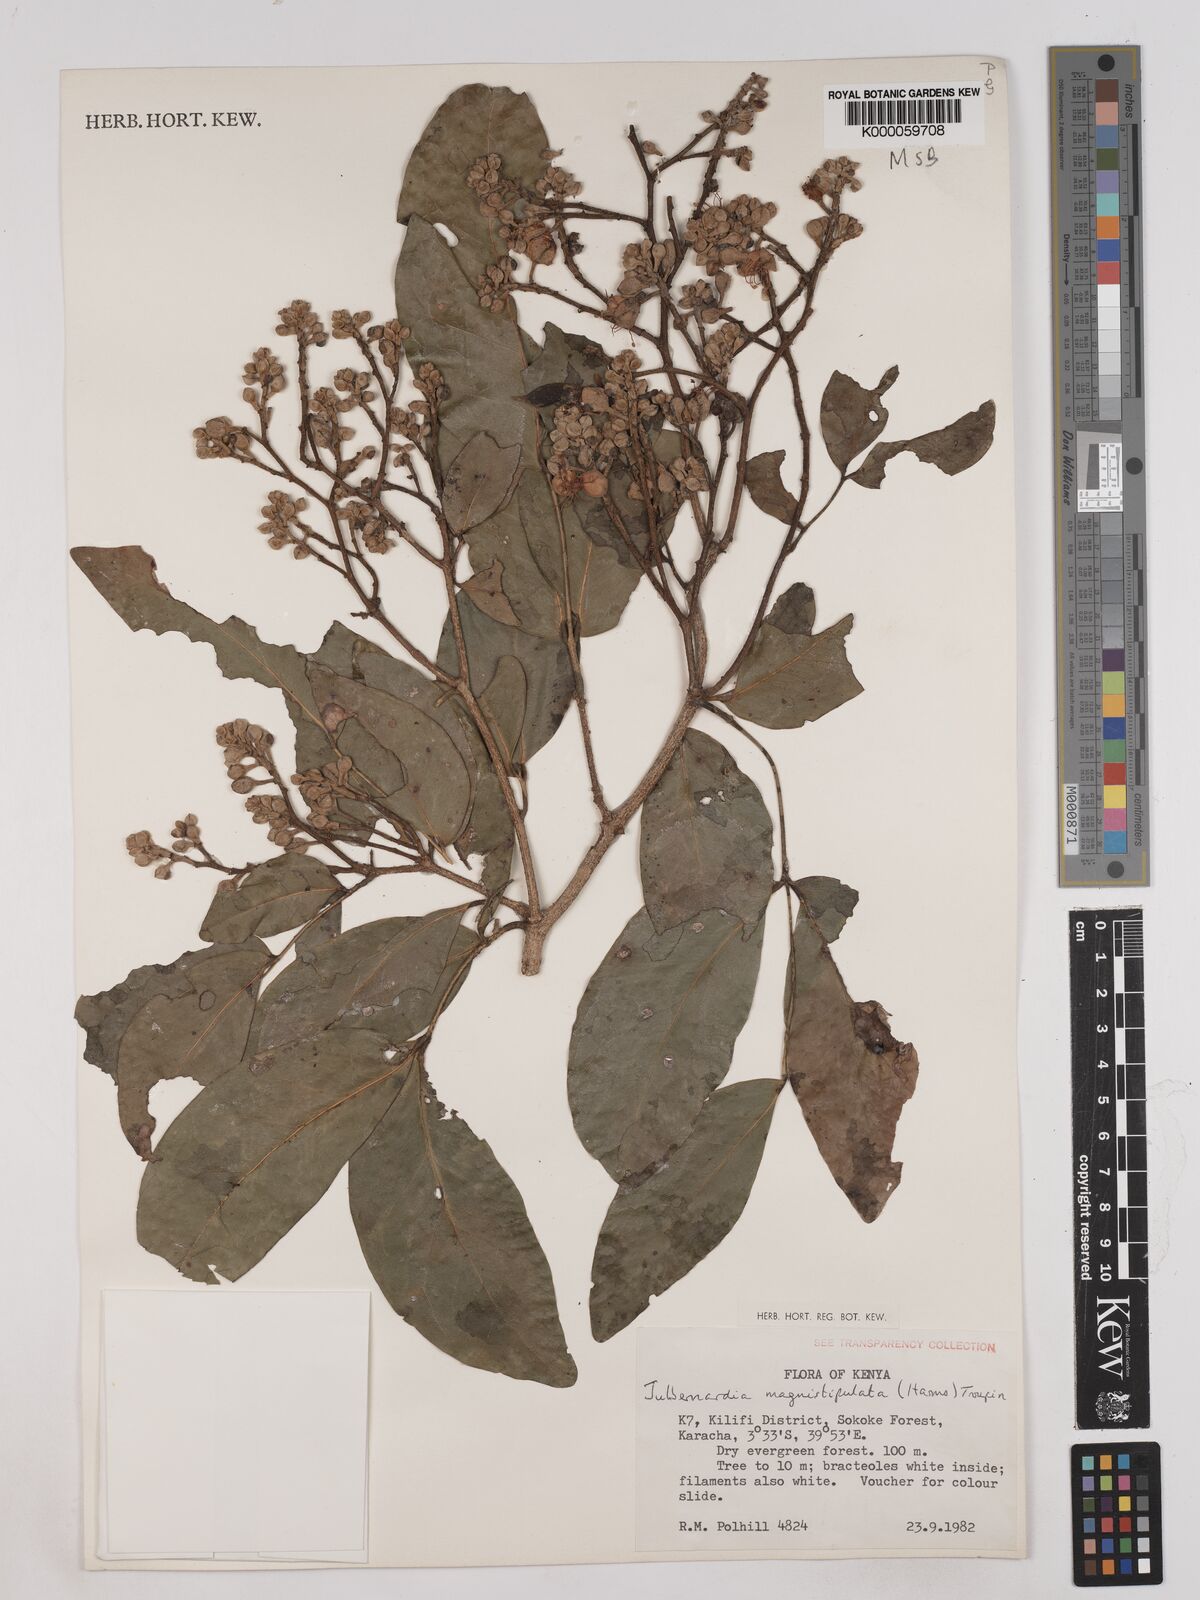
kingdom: Plantae
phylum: Tracheophyta
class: Magnoliopsida
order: Fabales
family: Fabaceae
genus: Julbernardia
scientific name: Julbernardia magnistipulata
